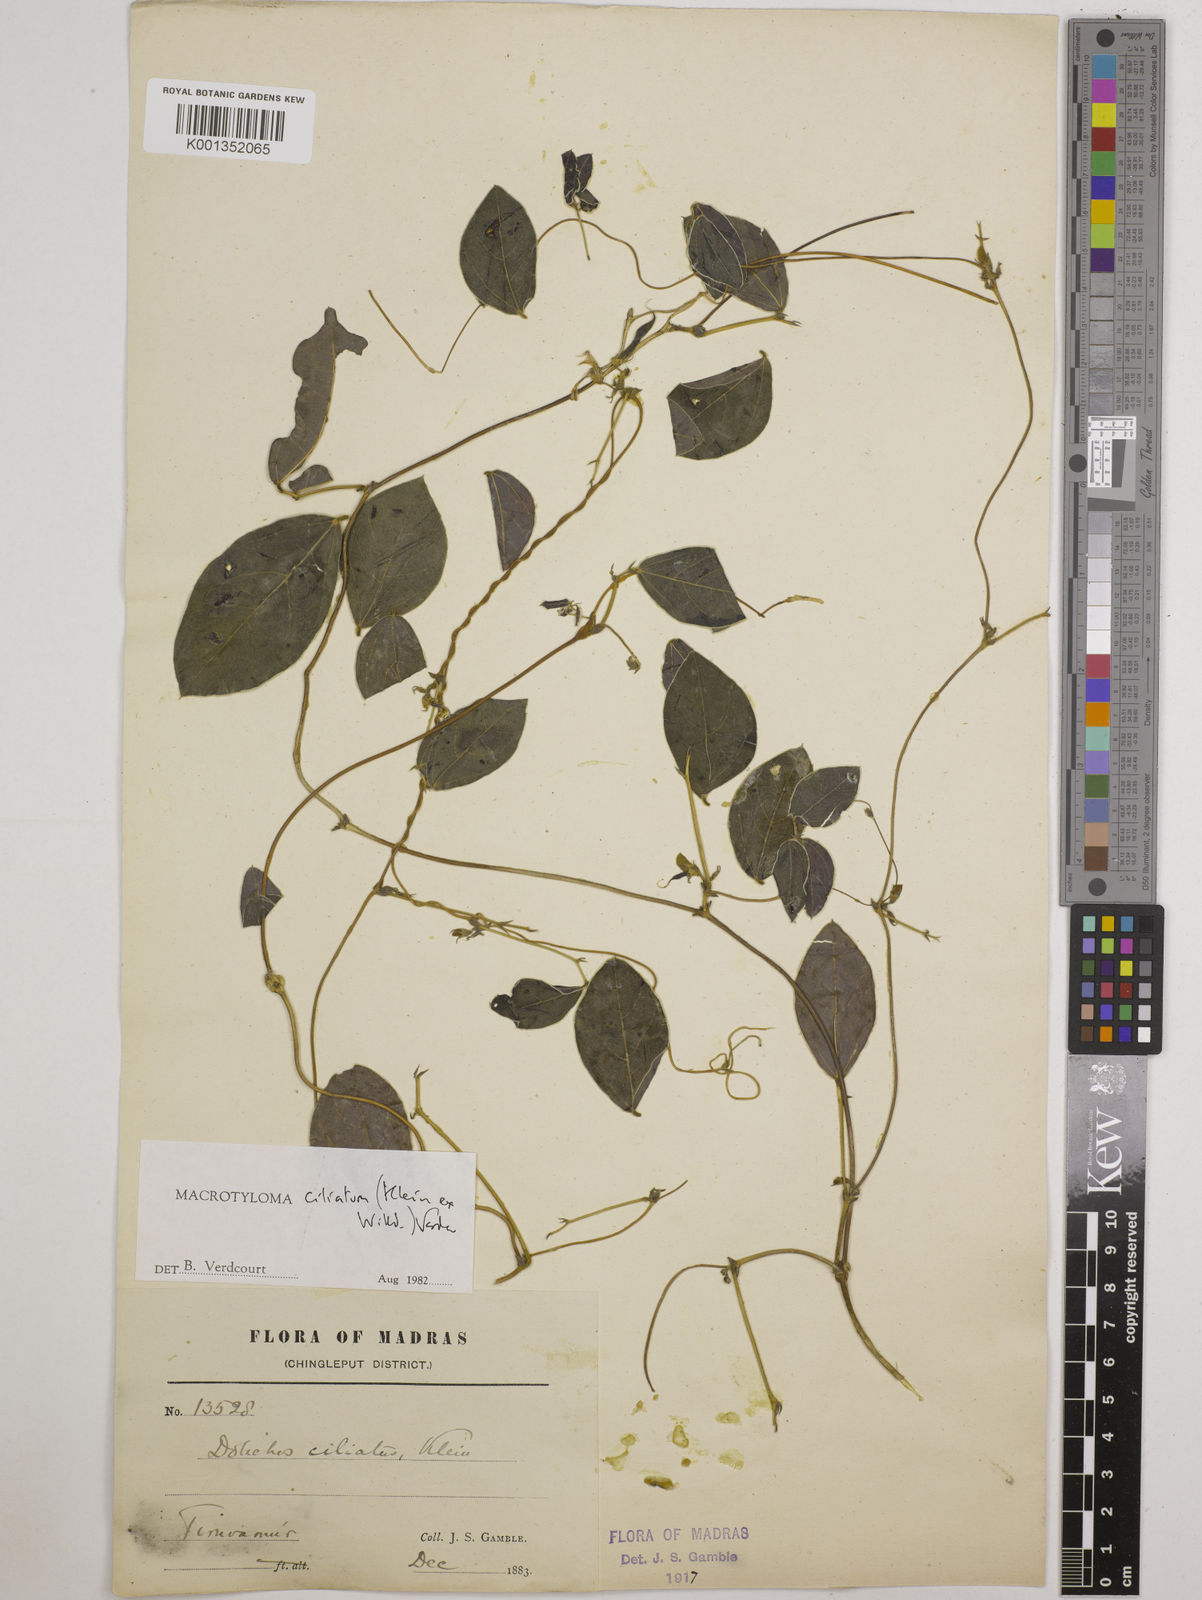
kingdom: Plantae
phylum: Tracheophyta
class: Magnoliopsida
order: Fabales
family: Fabaceae
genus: Macrotyloma
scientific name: Macrotyloma ciliatum
